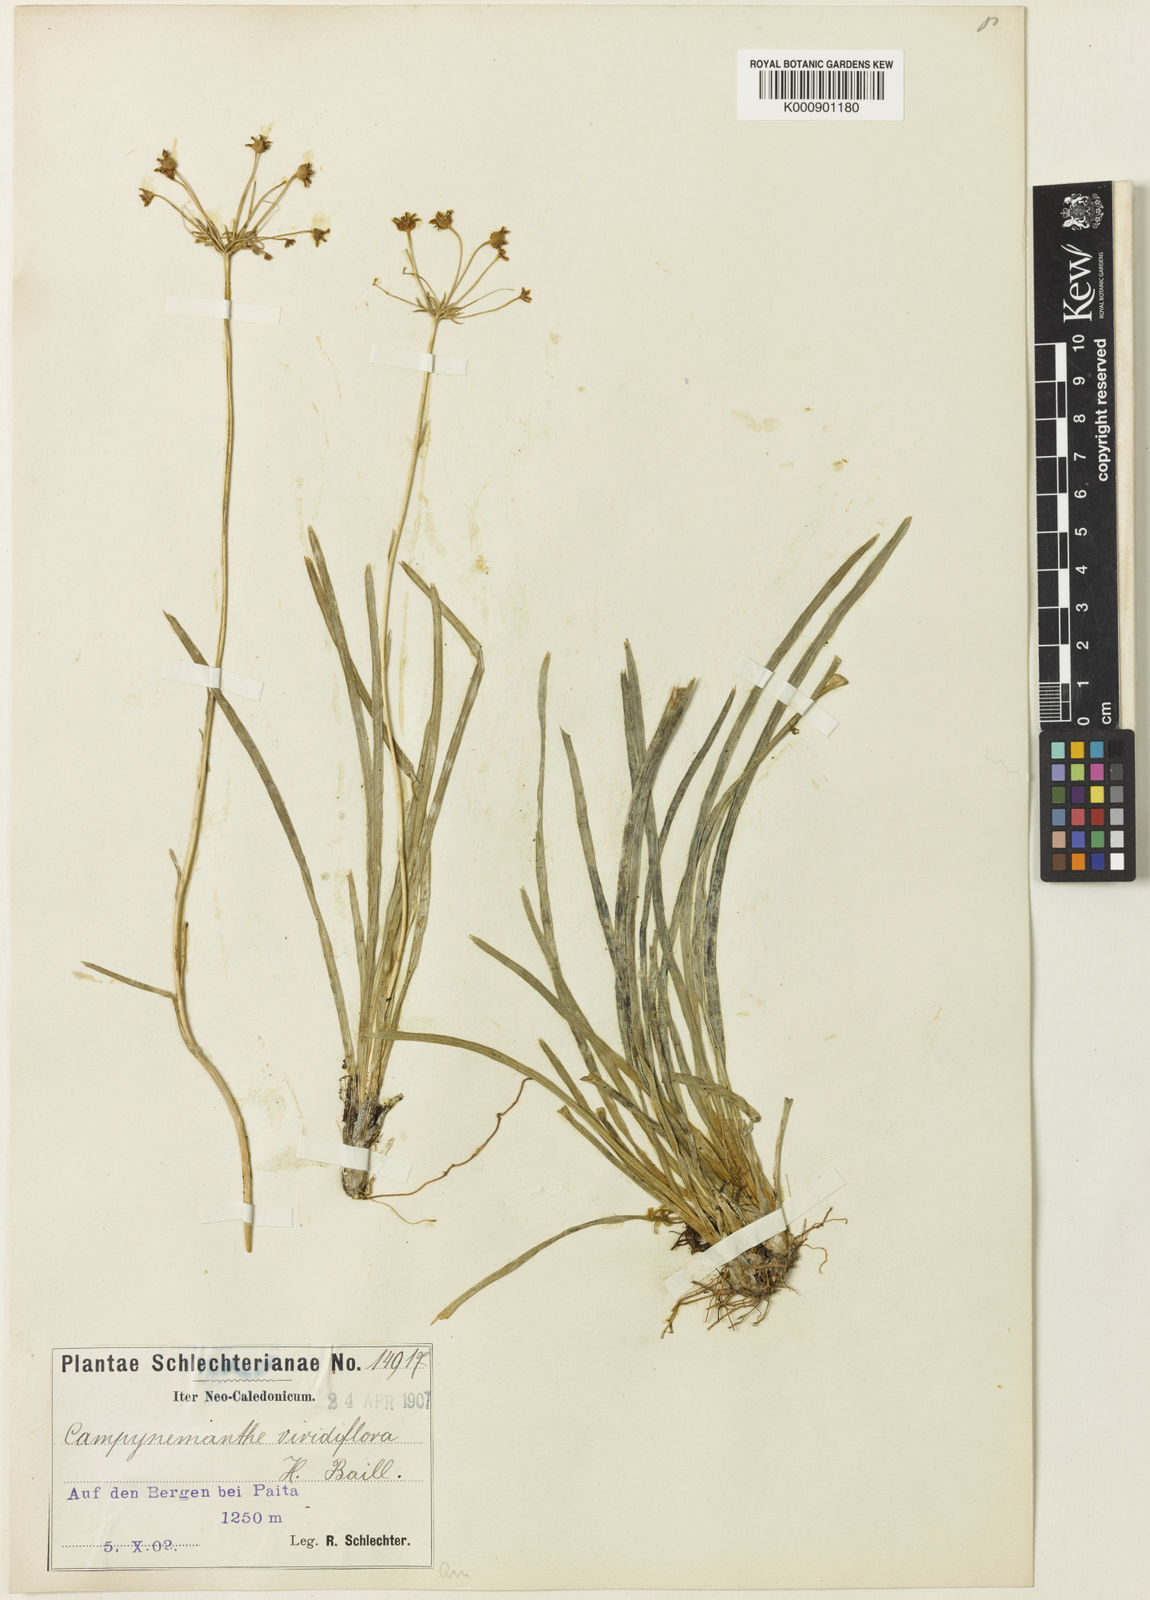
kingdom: Plantae
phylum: Tracheophyta
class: Liliopsida
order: Liliales
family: Campynemataceae
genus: Campynema
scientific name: Campynema
